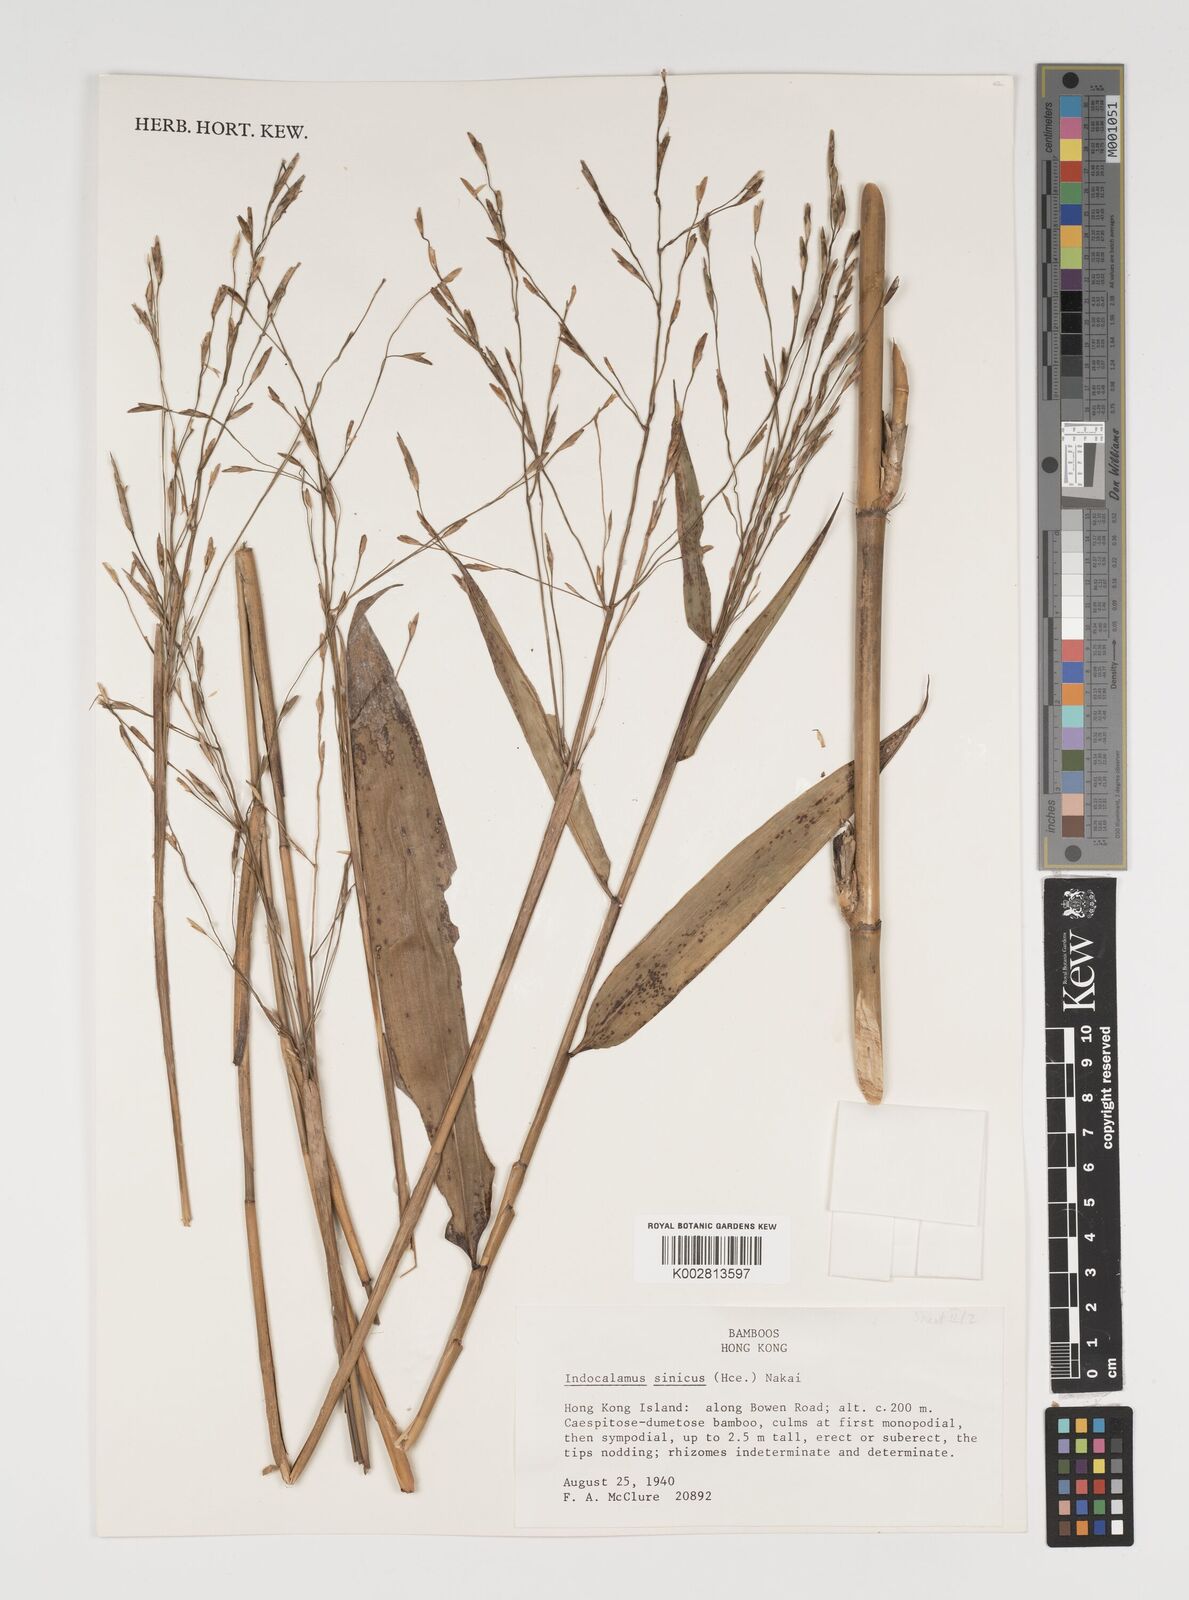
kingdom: Plantae
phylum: Tracheophyta
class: Liliopsida
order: Poales
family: Poaceae
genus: Indocalamus
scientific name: Indocalamus sinicus
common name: Chinese cane
